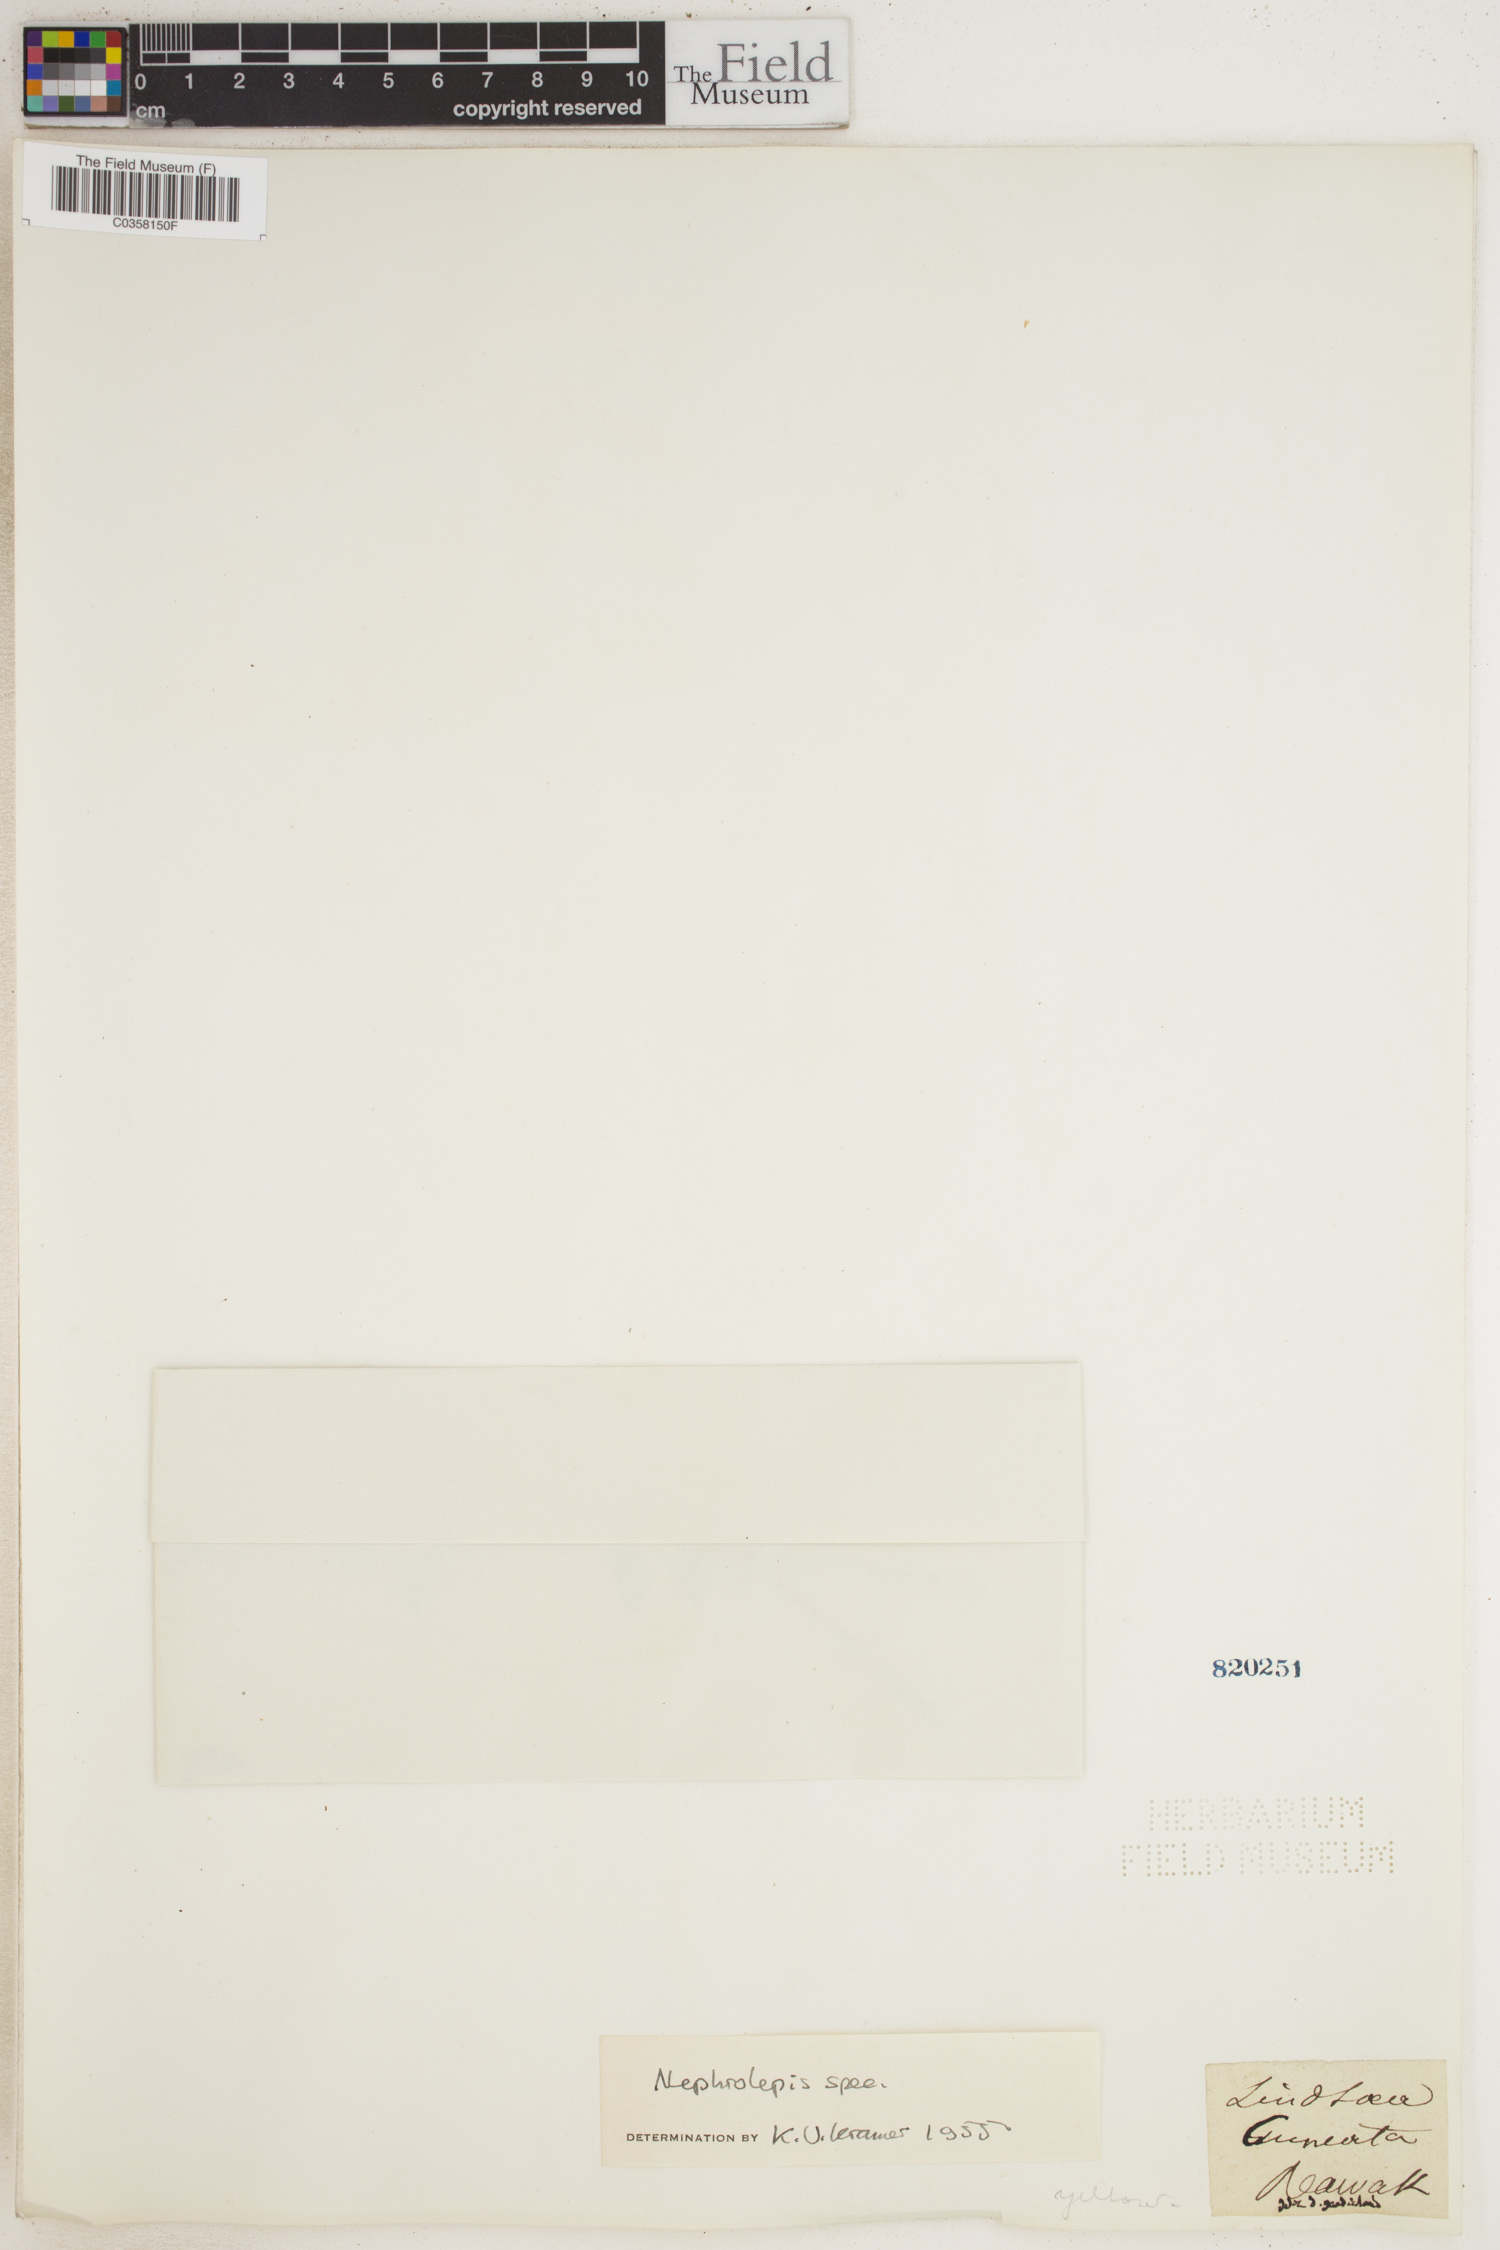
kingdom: Plantae
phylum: Tracheophyta
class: Polypodiopsida
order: Polypodiales
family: Nephrolepidaceae
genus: Nephrolepis
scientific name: Nephrolepis
